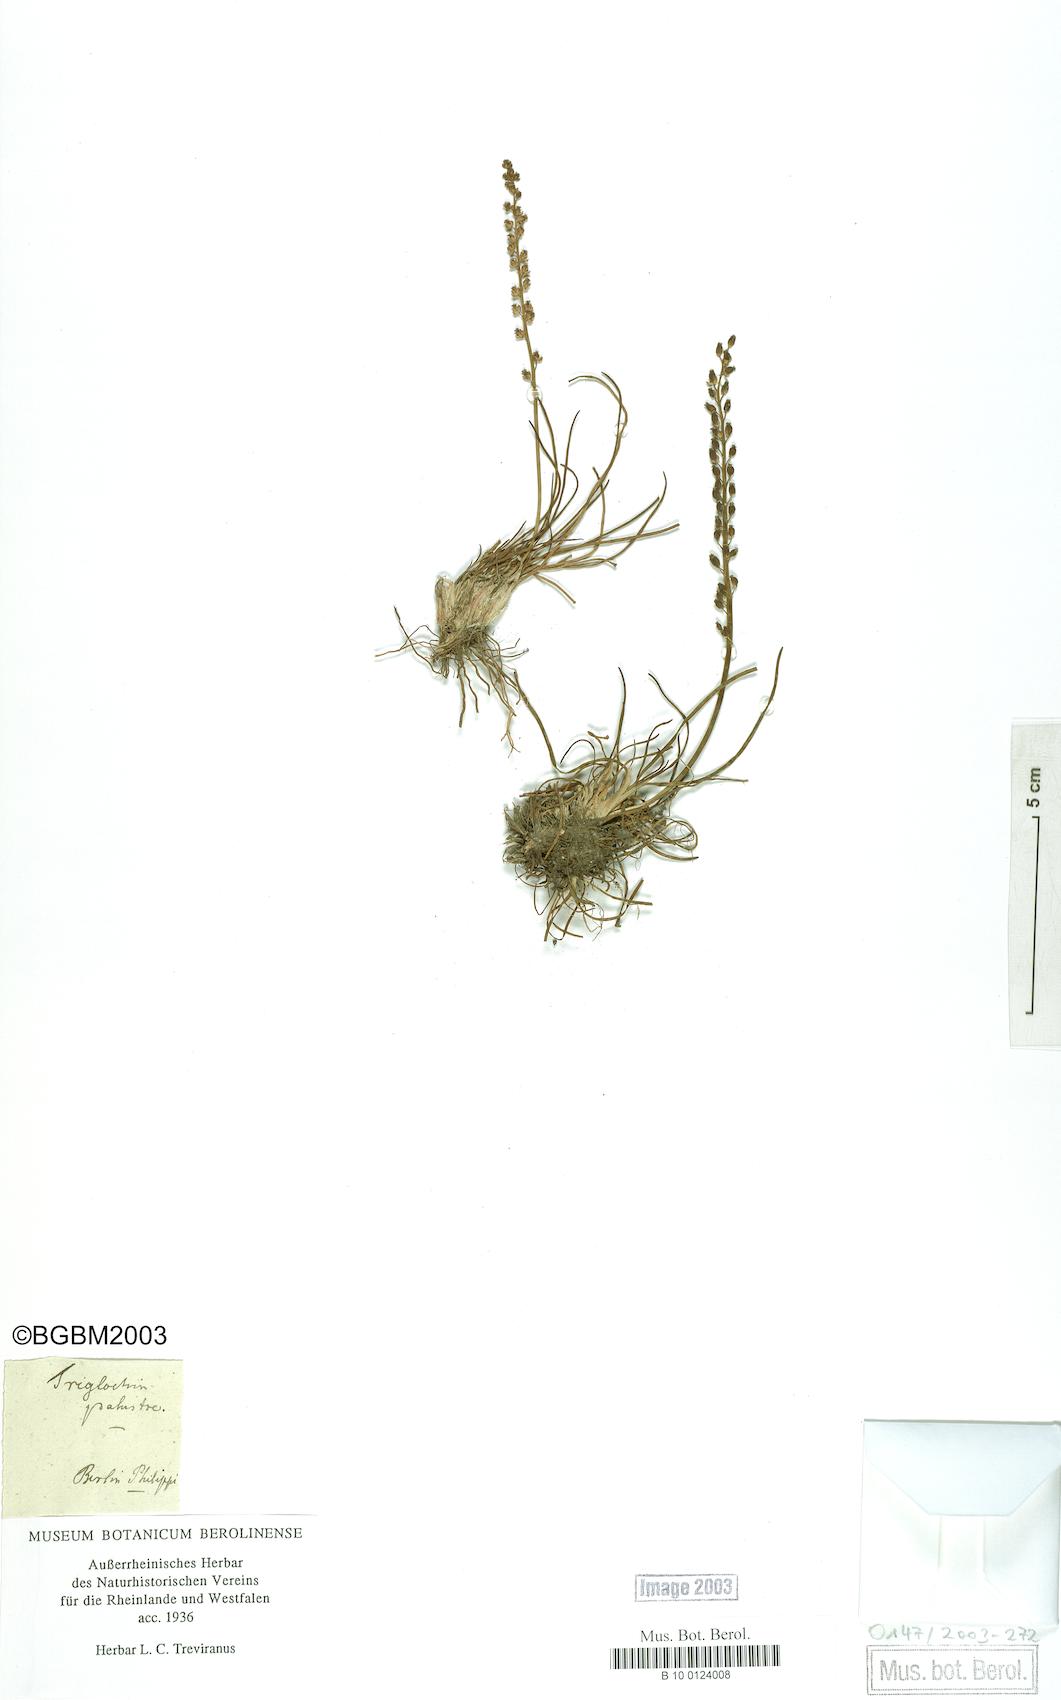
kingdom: Plantae
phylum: Tracheophyta
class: Liliopsida
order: Alismatales
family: Juncaginaceae
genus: Triglochin
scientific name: Triglochin palustris
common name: Marsh arrowgrass
